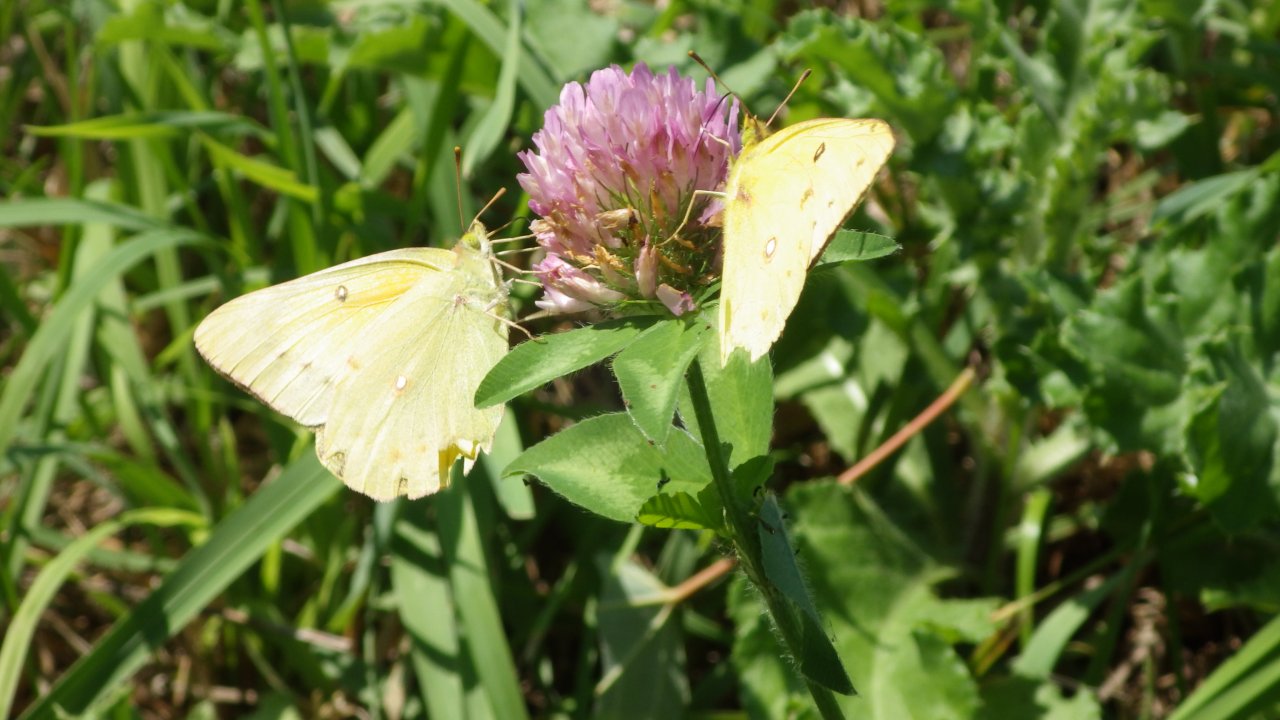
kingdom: Animalia
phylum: Arthropoda
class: Insecta
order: Lepidoptera
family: Pieridae
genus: Colias
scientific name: Colias eurytheme
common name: Orange Sulphur
